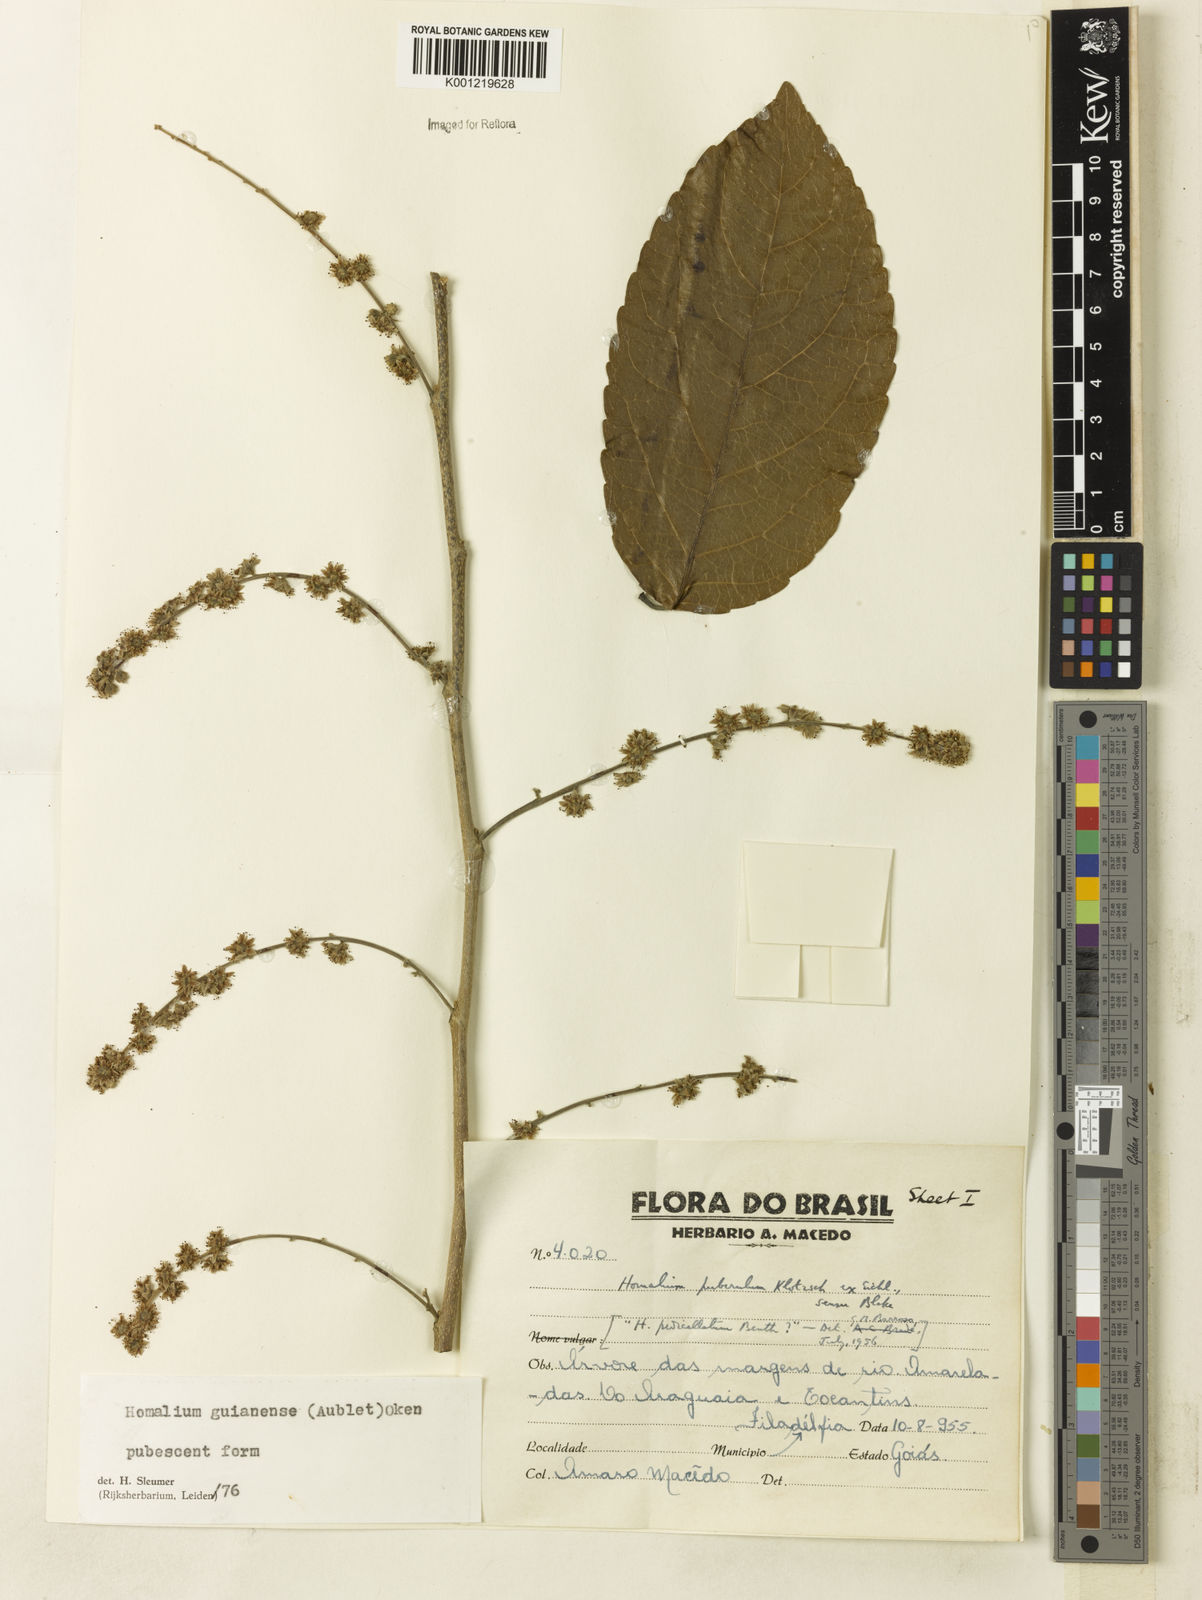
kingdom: Plantae
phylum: Tracheophyta
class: Magnoliopsida
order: Malpighiales
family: Salicaceae
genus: Homalium
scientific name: Homalium guianense
